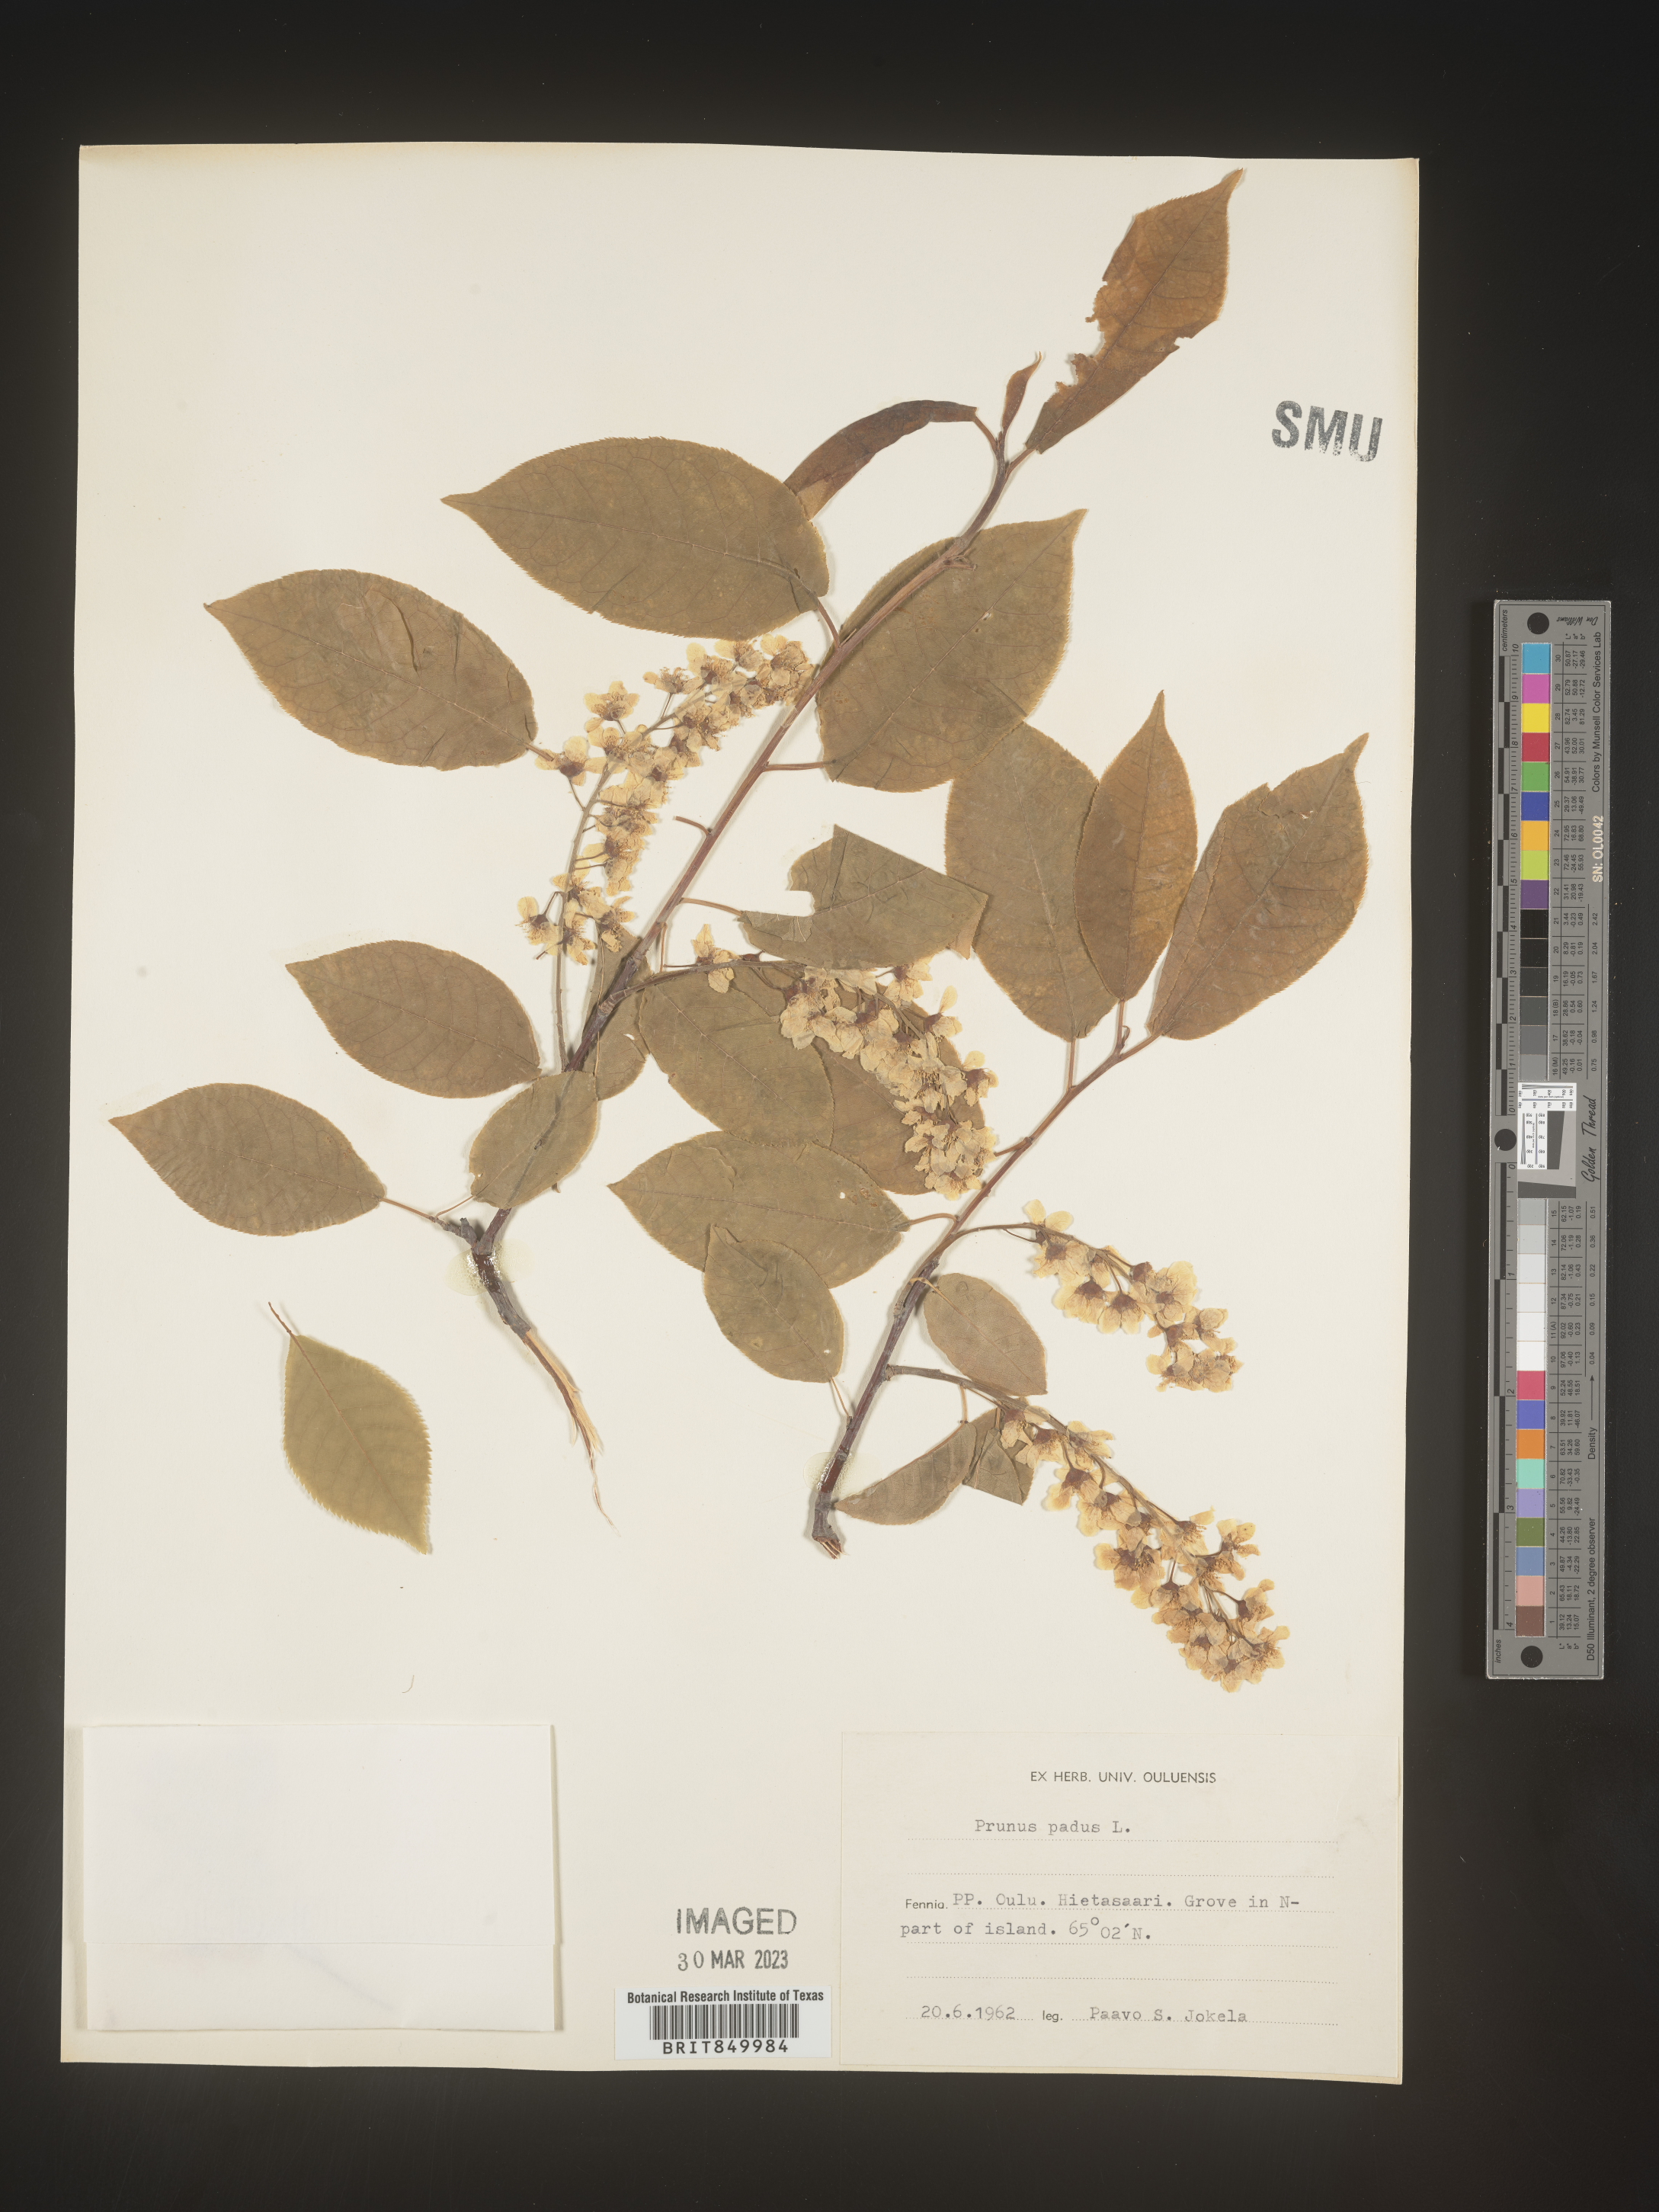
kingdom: Plantae
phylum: Tracheophyta
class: Magnoliopsida
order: Rosales
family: Rosaceae
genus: Prunus
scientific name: Prunus
